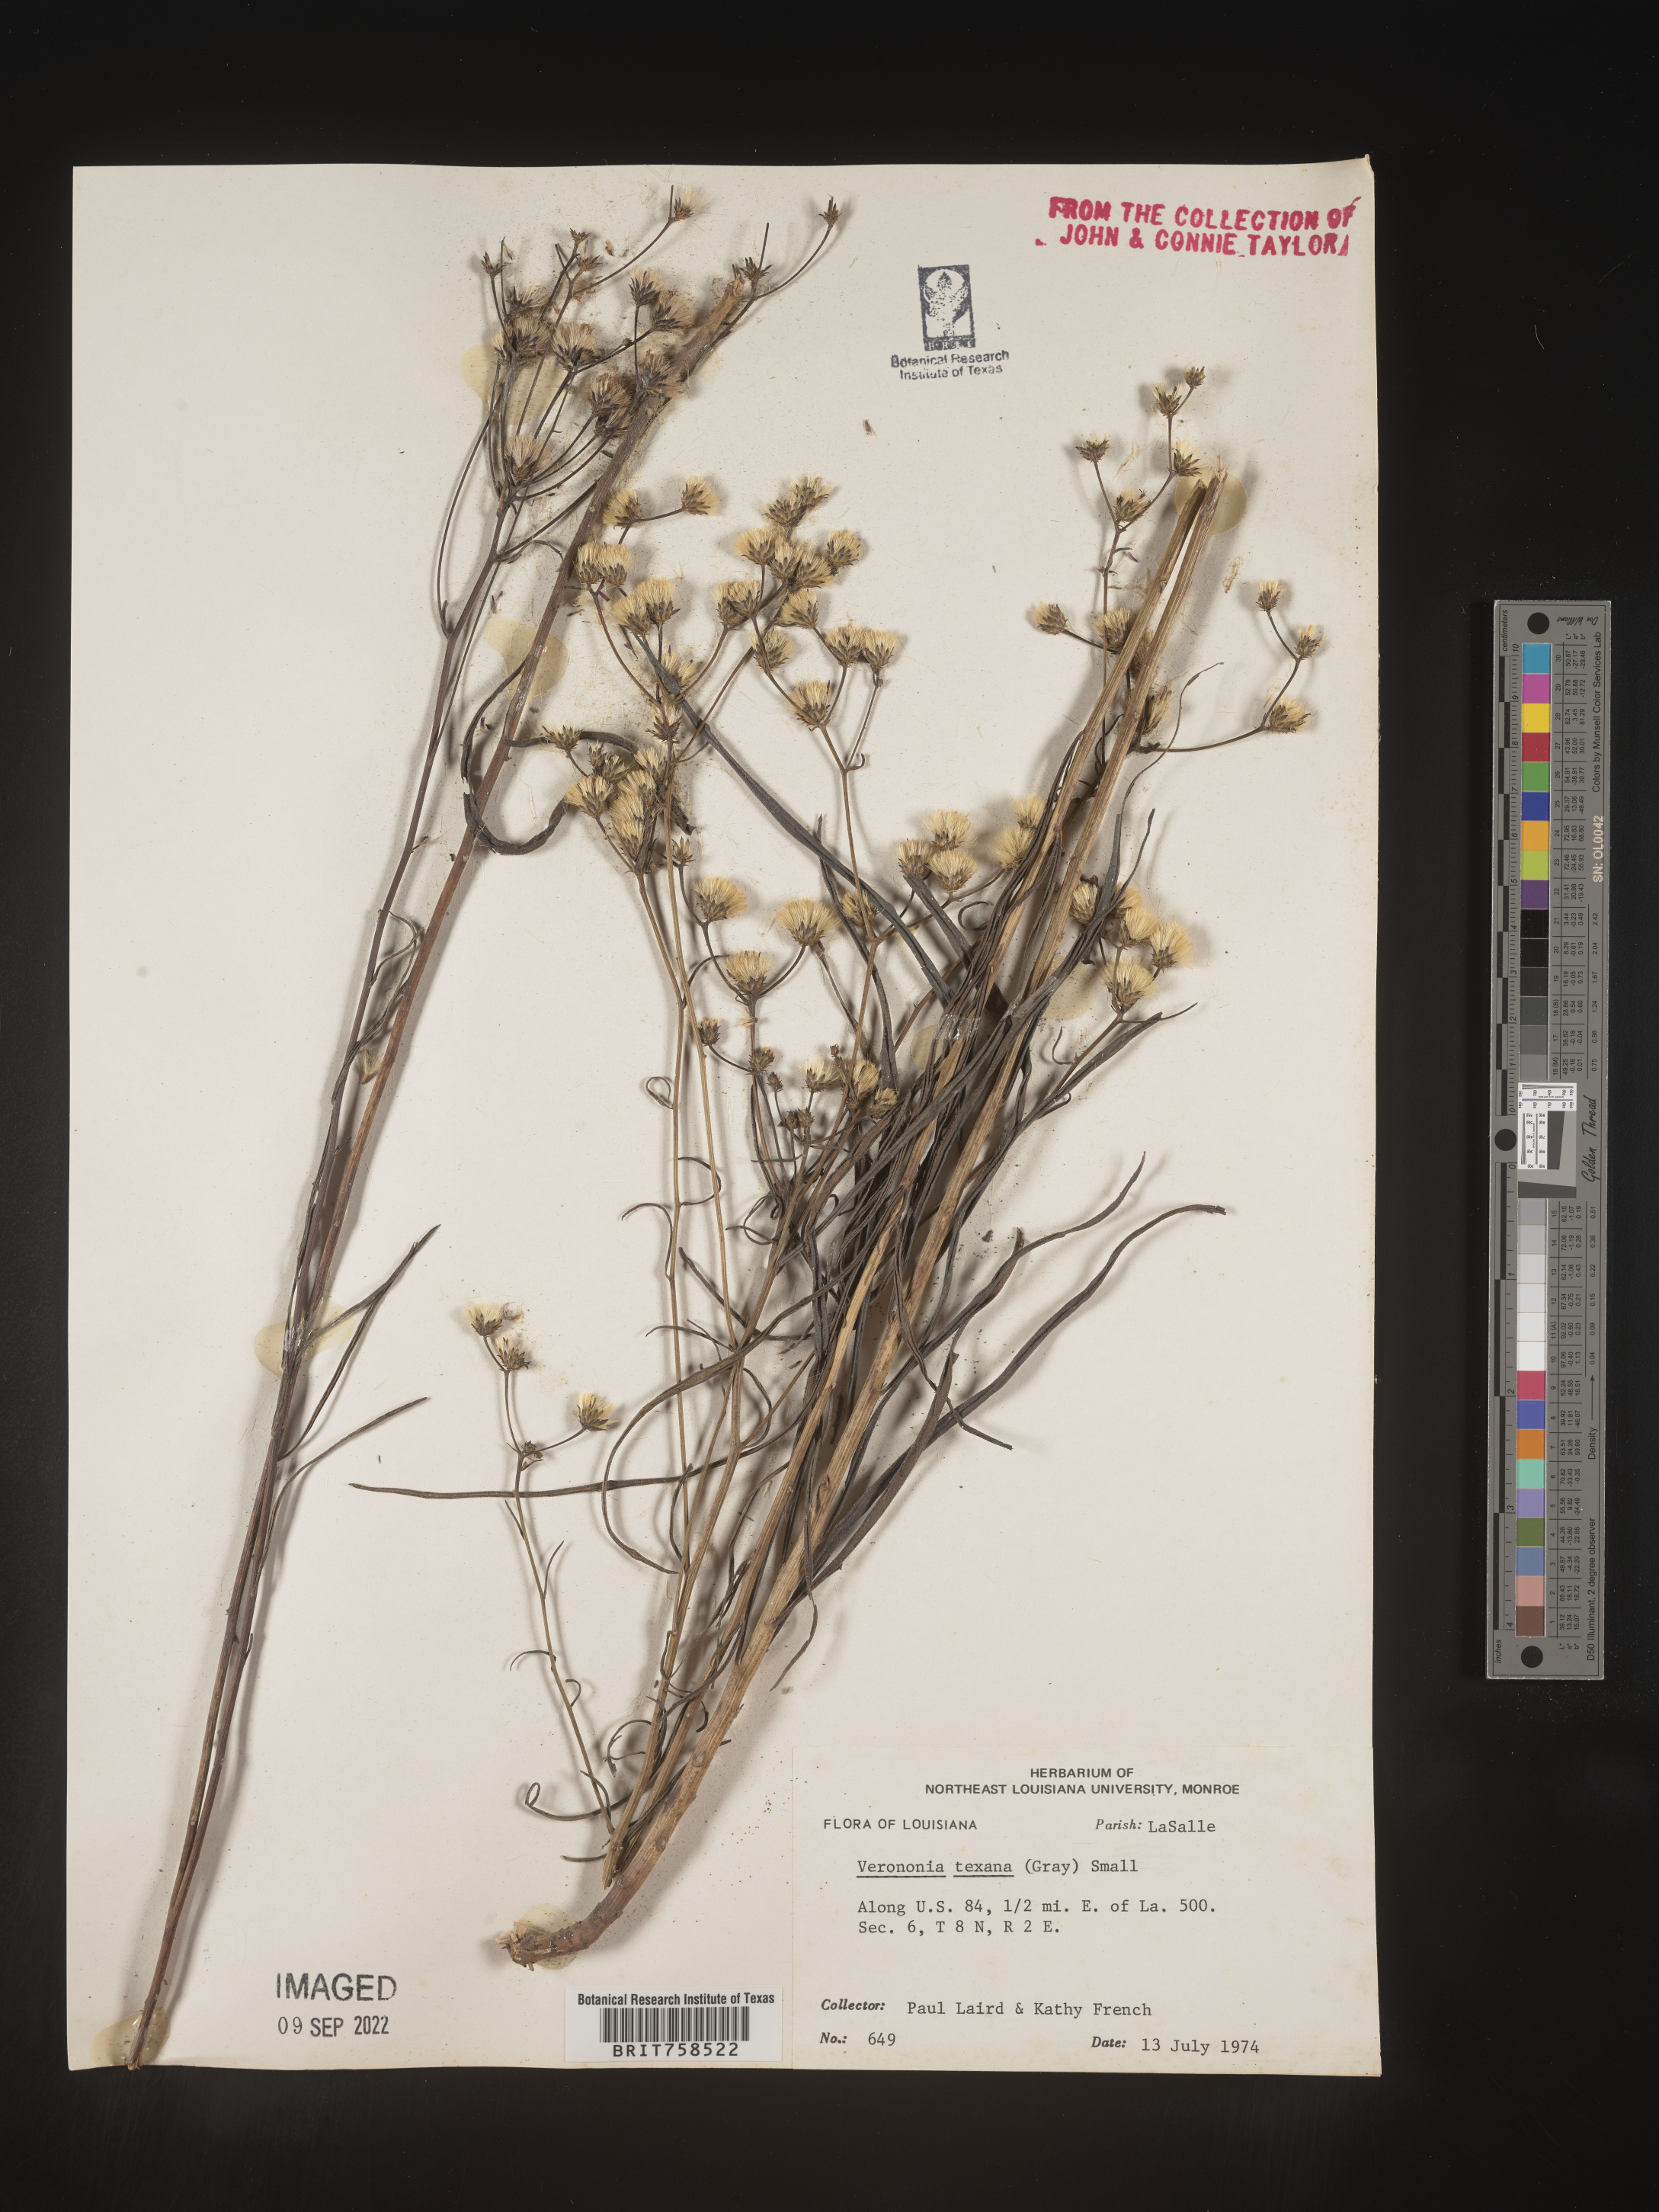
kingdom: Plantae
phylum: Tracheophyta
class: Magnoliopsida
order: Asterales
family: Asteraceae
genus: Vernonia
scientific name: Vernonia texana
